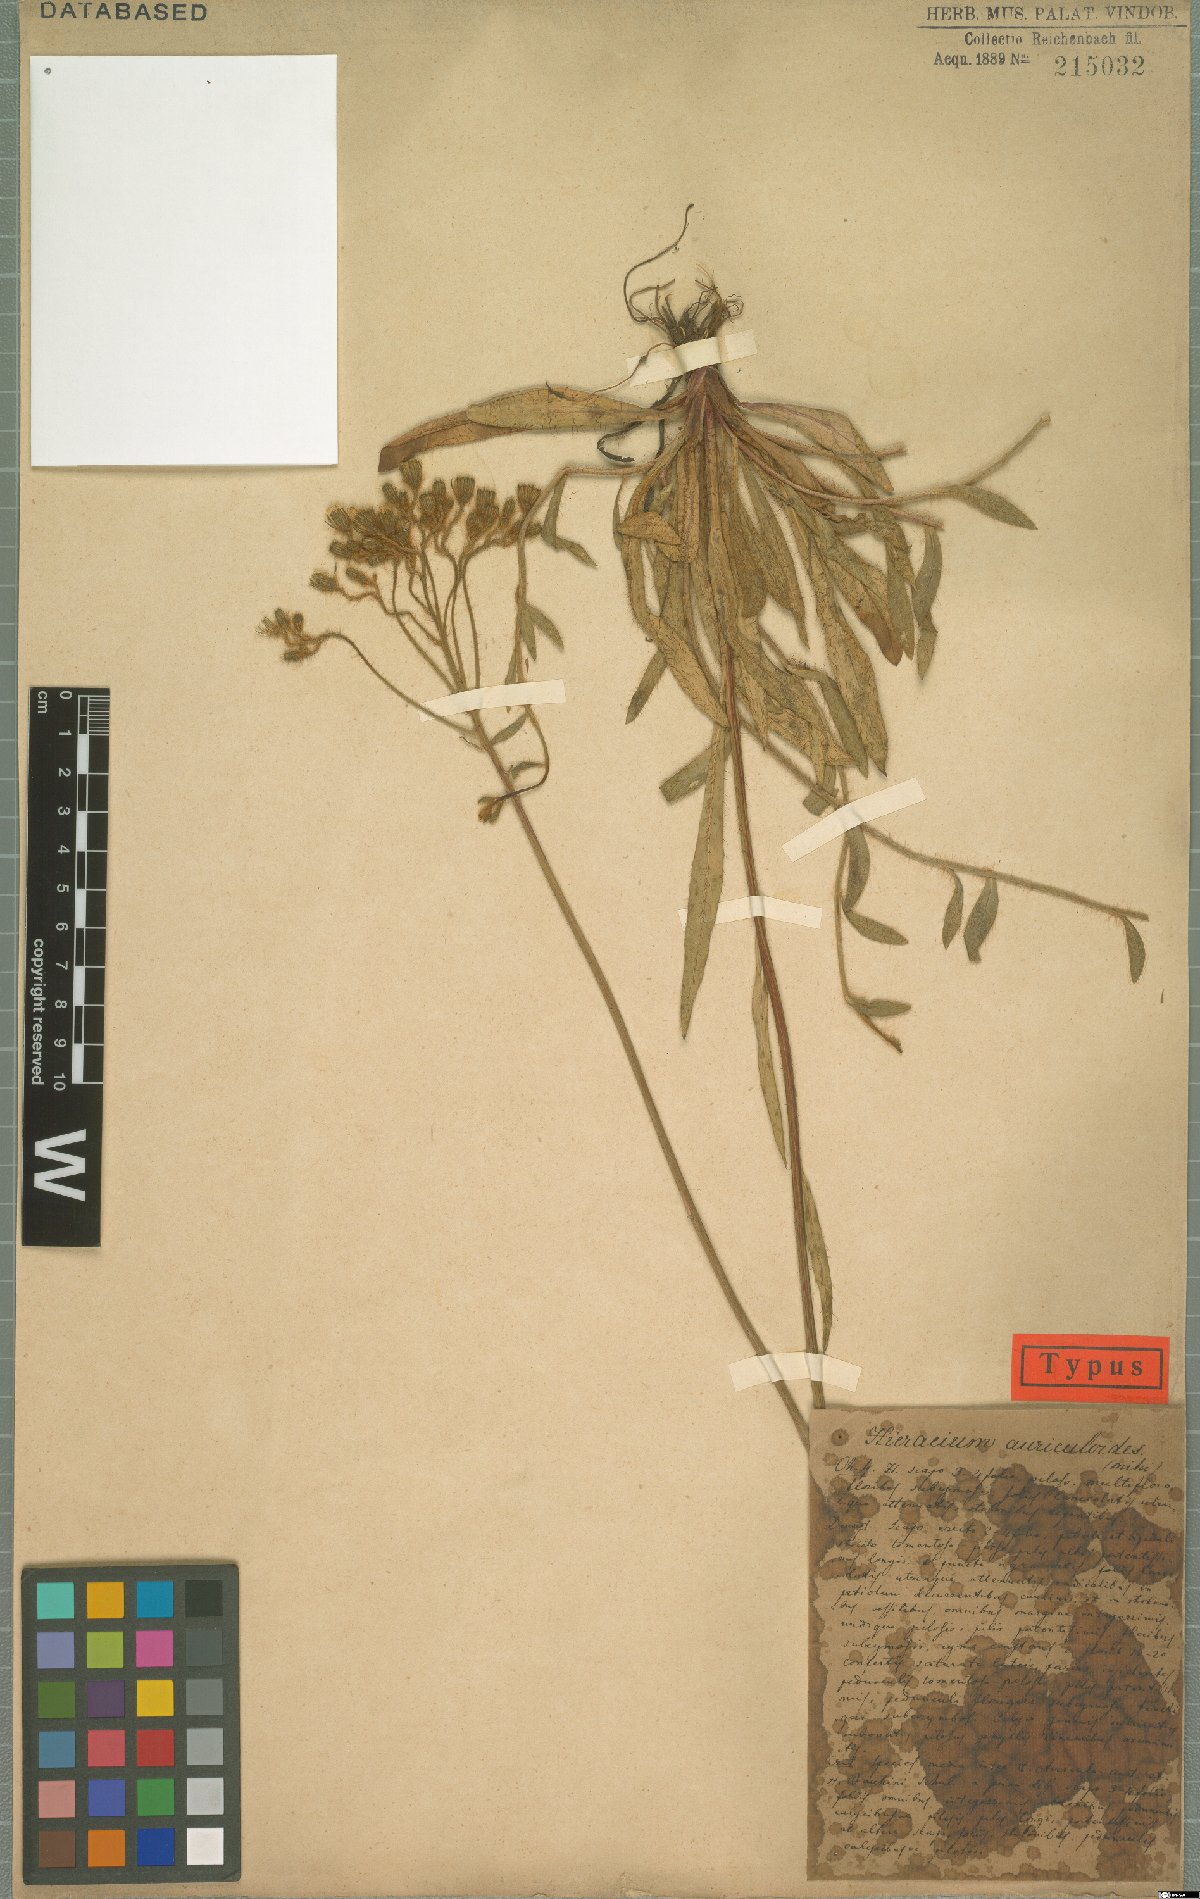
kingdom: Plantae
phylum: Tracheophyta
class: Magnoliopsida
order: Asterales
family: Asteraceae
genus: Pilosella
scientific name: Pilosella auriculoides
